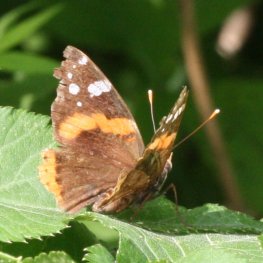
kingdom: Animalia
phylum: Arthropoda
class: Insecta
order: Lepidoptera
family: Nymphalidae
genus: Vanessa
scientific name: Vanessa atalanta
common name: Red Admiral
